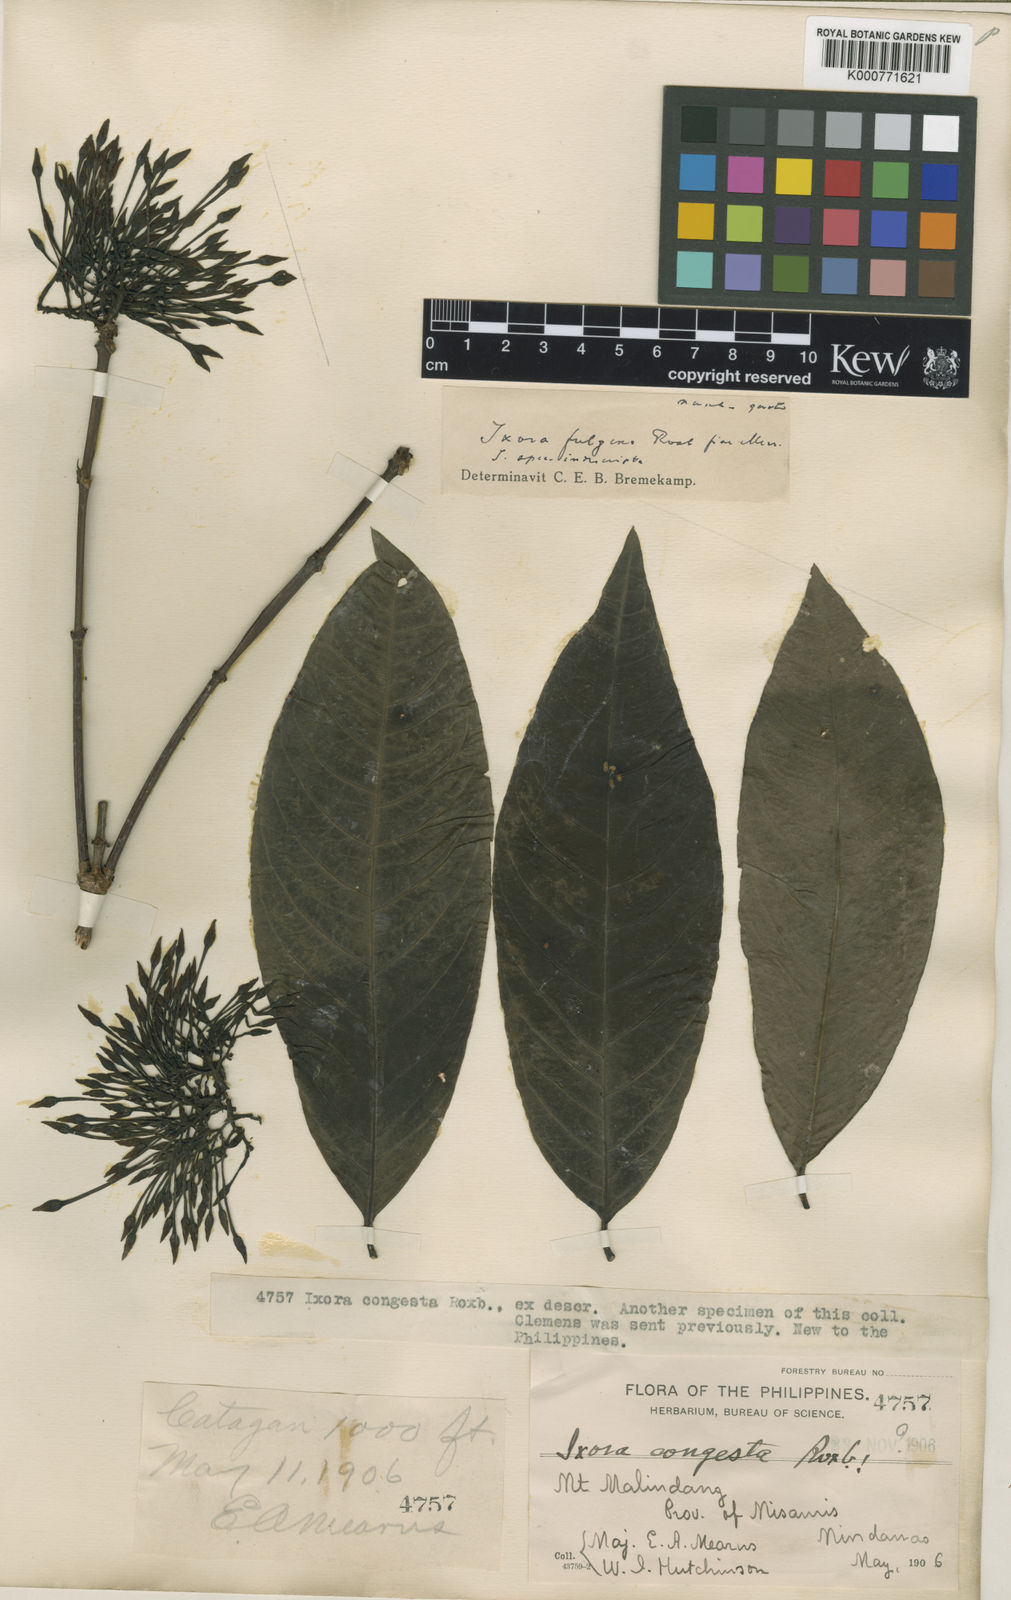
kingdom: Plantae
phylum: Tracheophyta
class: Magnoliopsida
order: Gentianales
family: Rubiaceae
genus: Ixora
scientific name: Ixora longifolia
